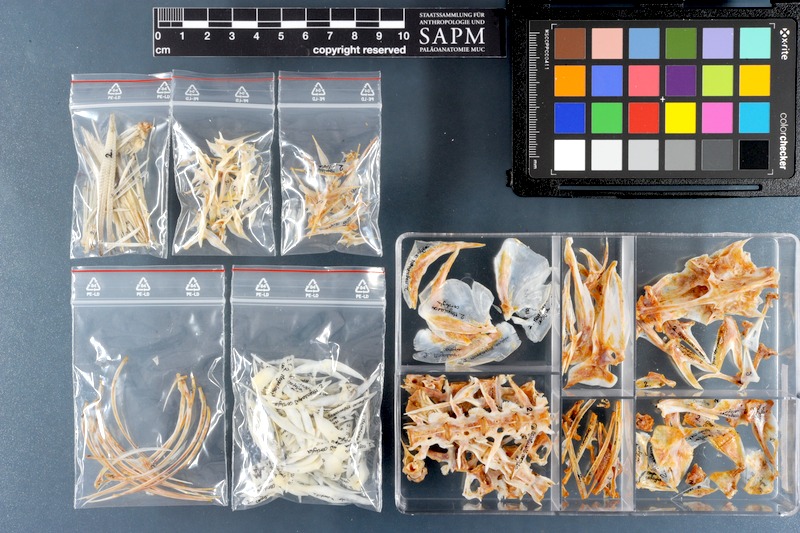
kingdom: Animalia
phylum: Chordata
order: Perciformes
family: Carangidae
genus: Megalaspis
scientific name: Megalaspis cordyla
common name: Torpedo scad
